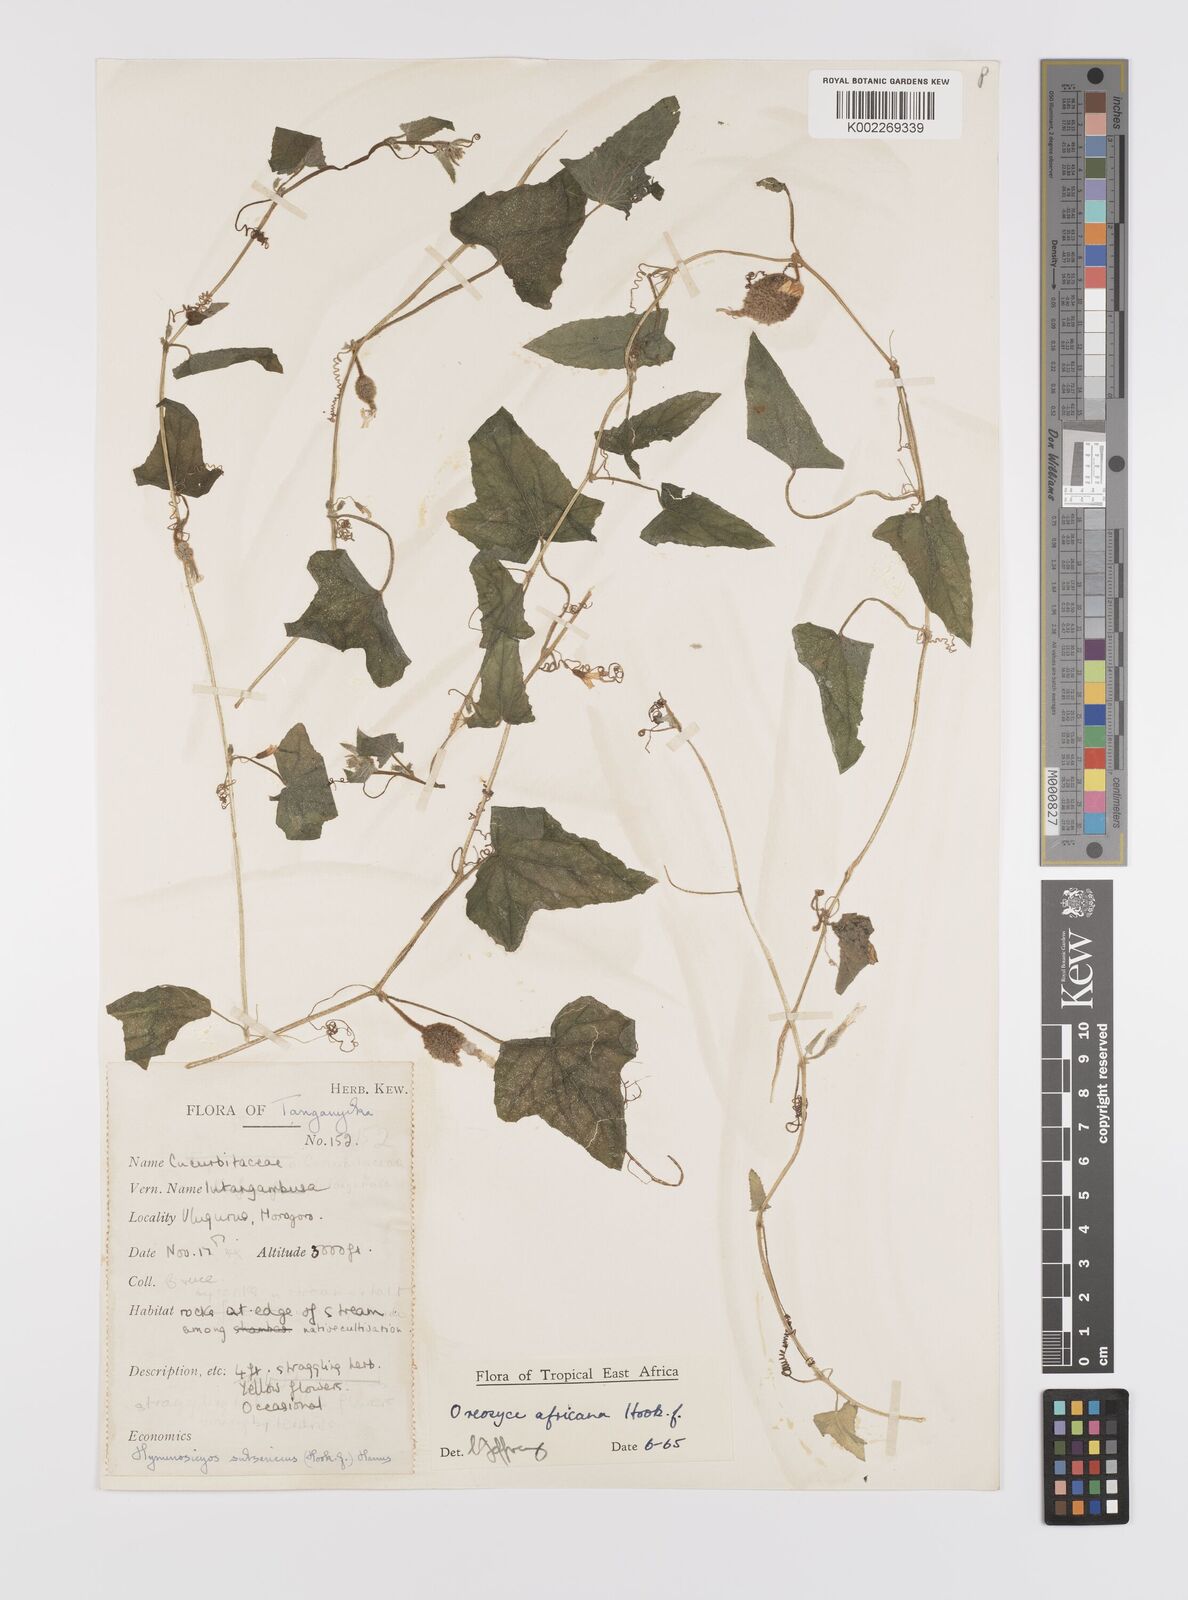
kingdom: Plantae
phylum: Tracheophyta
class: Magnoliopsida
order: Cucurbitales
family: Cucurbitaceae
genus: Cucumis
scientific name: Cucumis oreosyce
